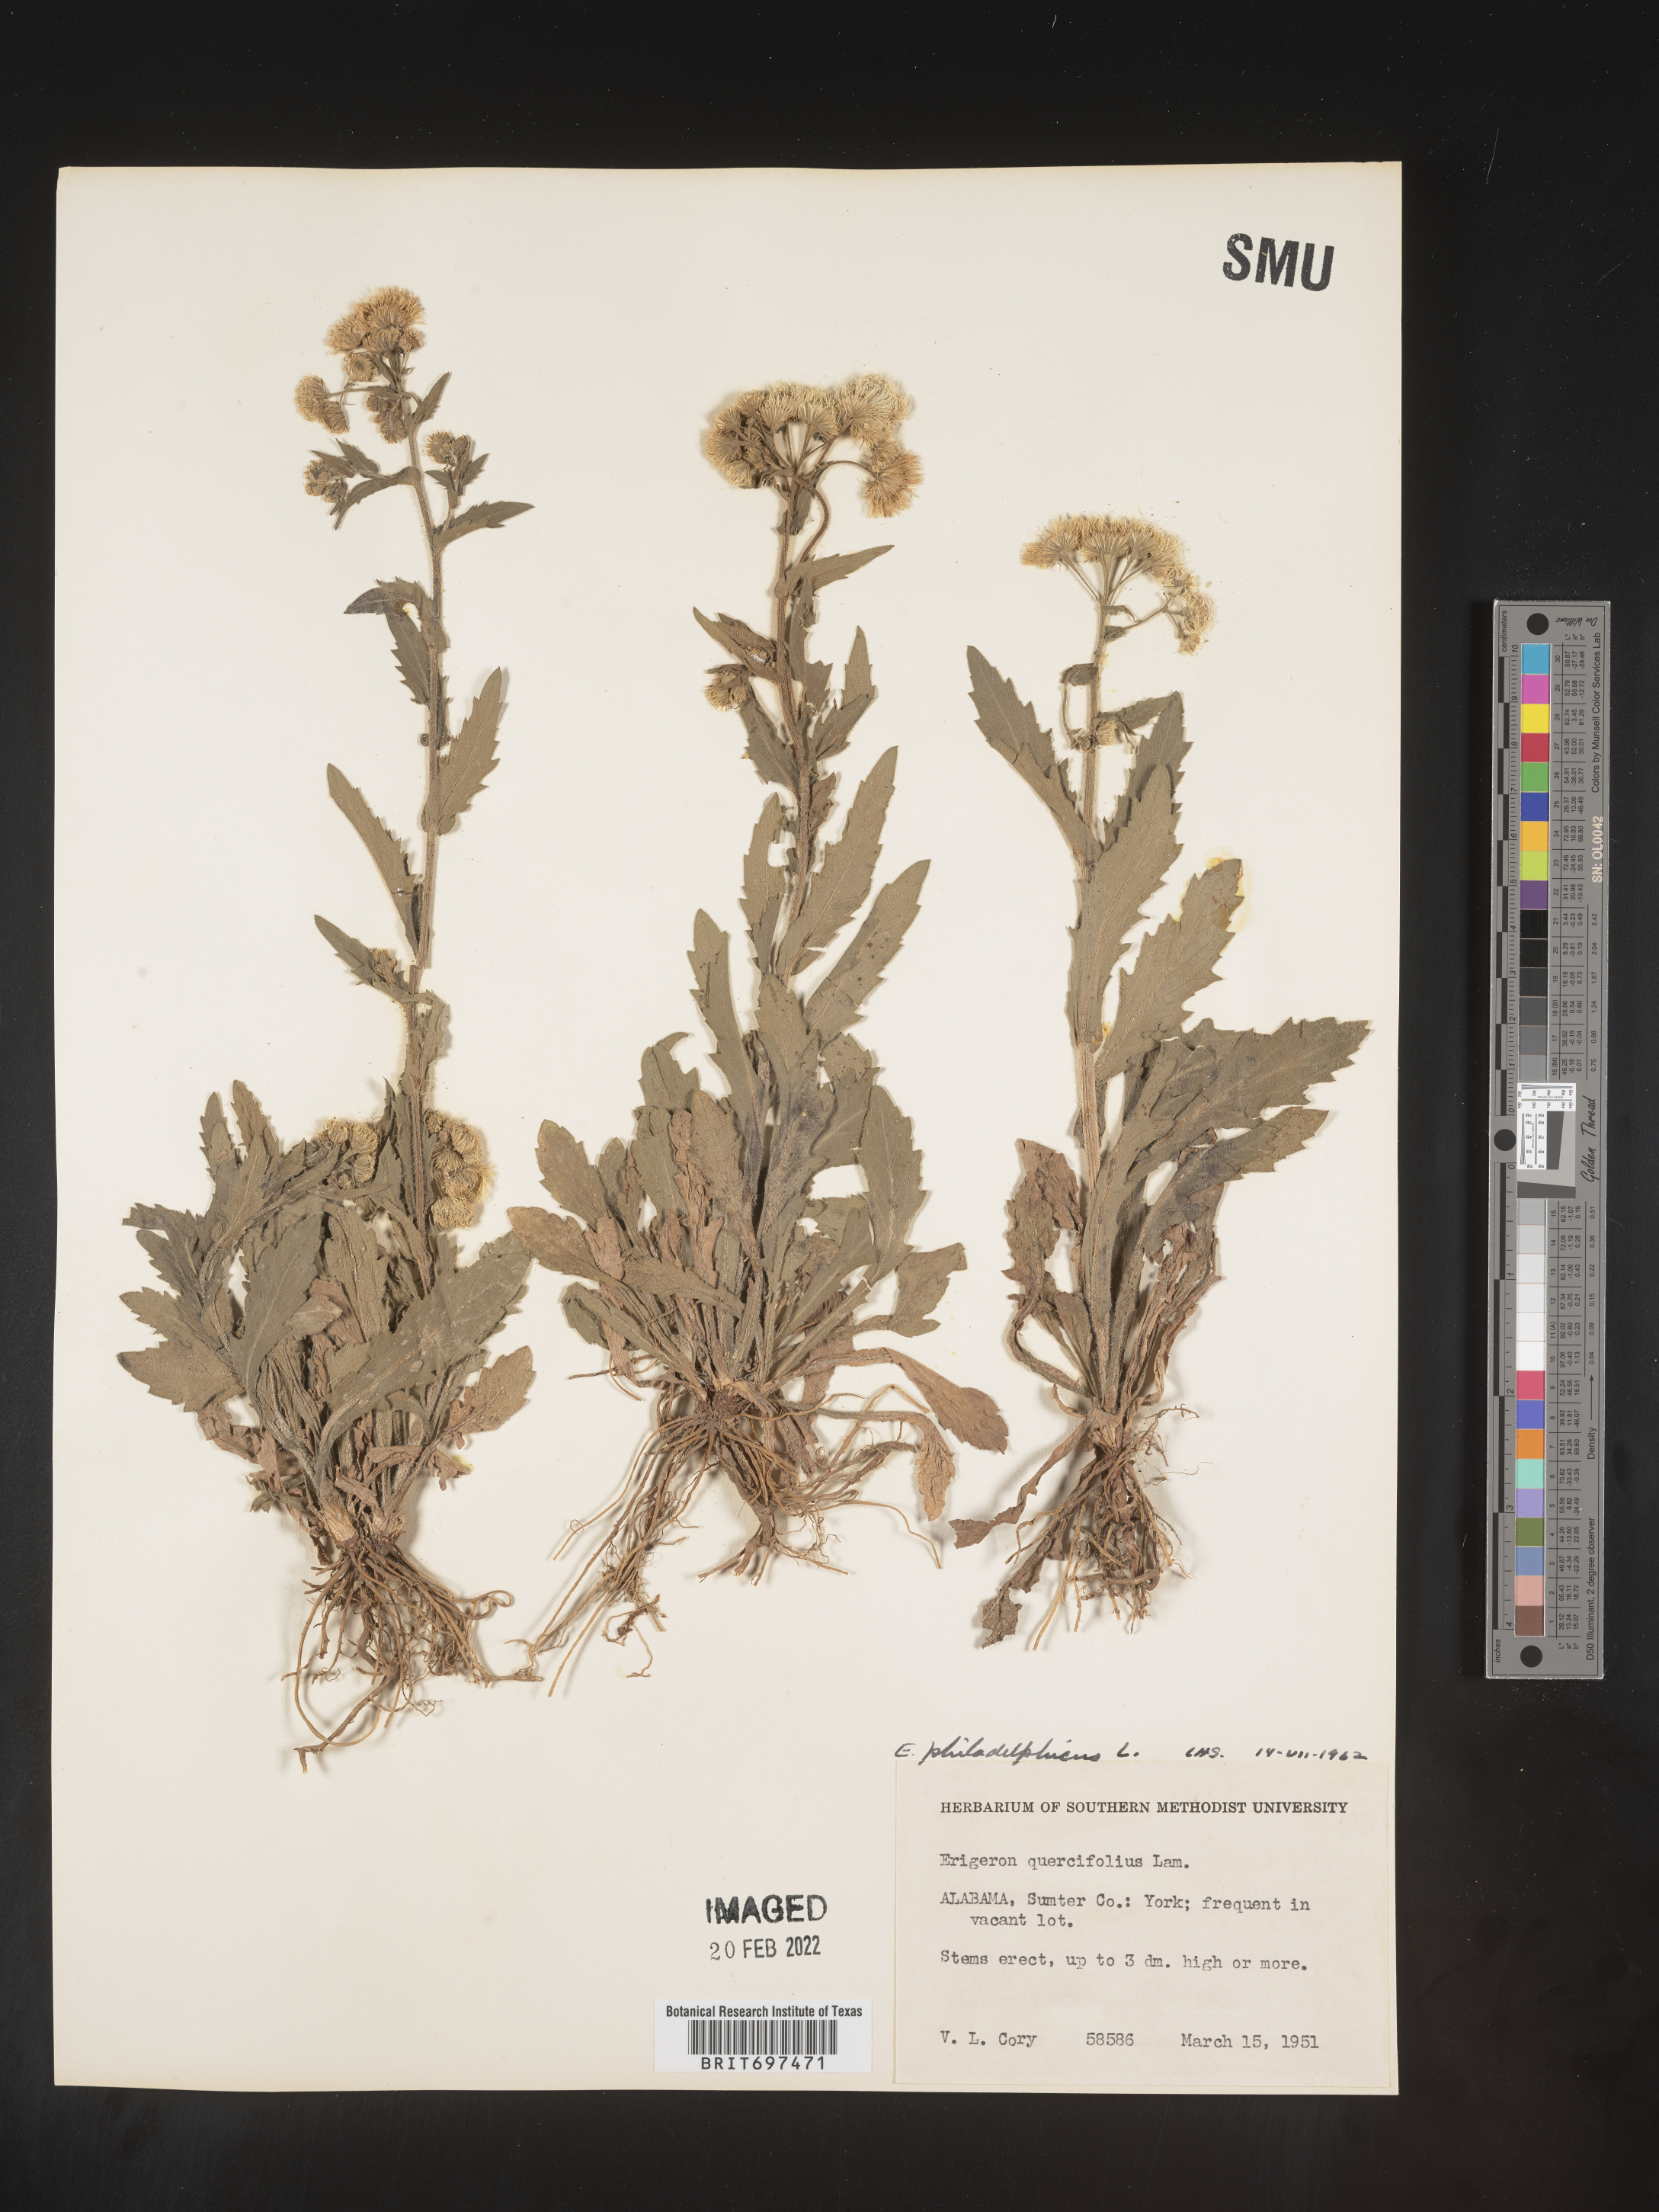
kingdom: Plantae
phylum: Tracheophyta
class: Magnoliopsida
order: Asterales
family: Asteraceae
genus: Erigeron
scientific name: Erigeron philadelphicus
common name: Robin's-plantain
